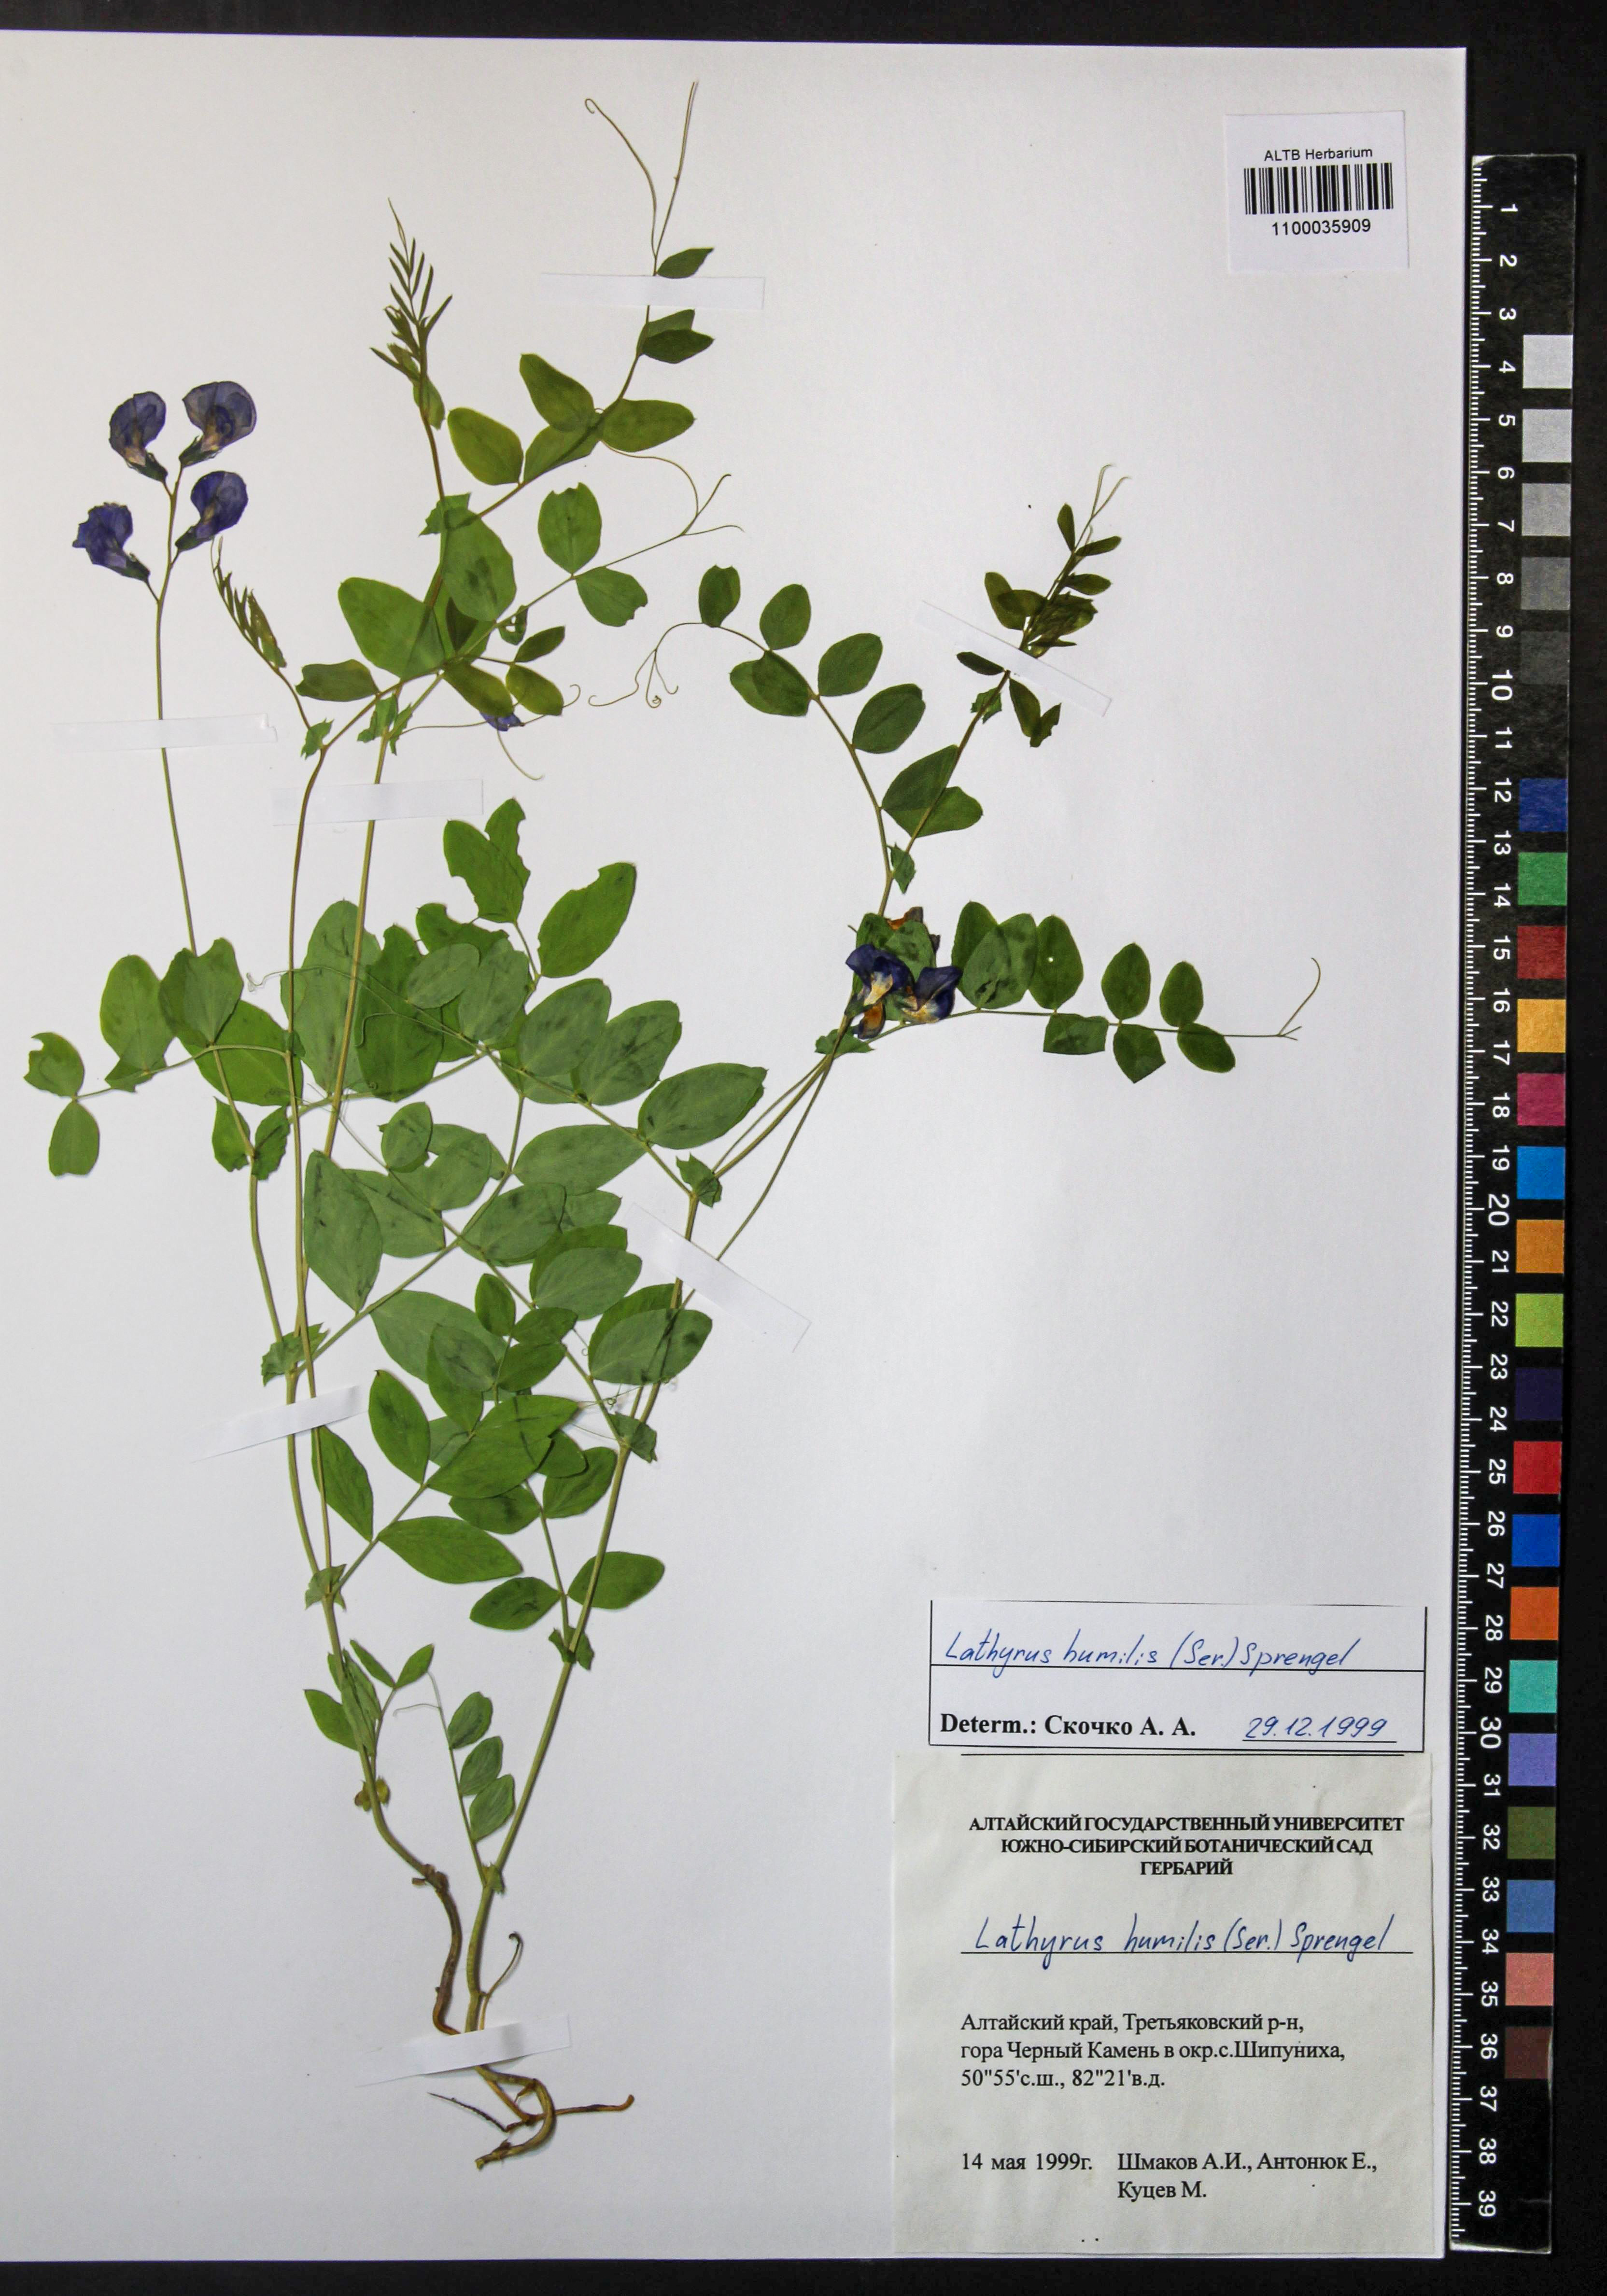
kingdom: Plantae
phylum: Tracheophyta
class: Magnoliopsida
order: Fabales
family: Fabaceae
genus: Lathyrus
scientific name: Lathyrus humilis
